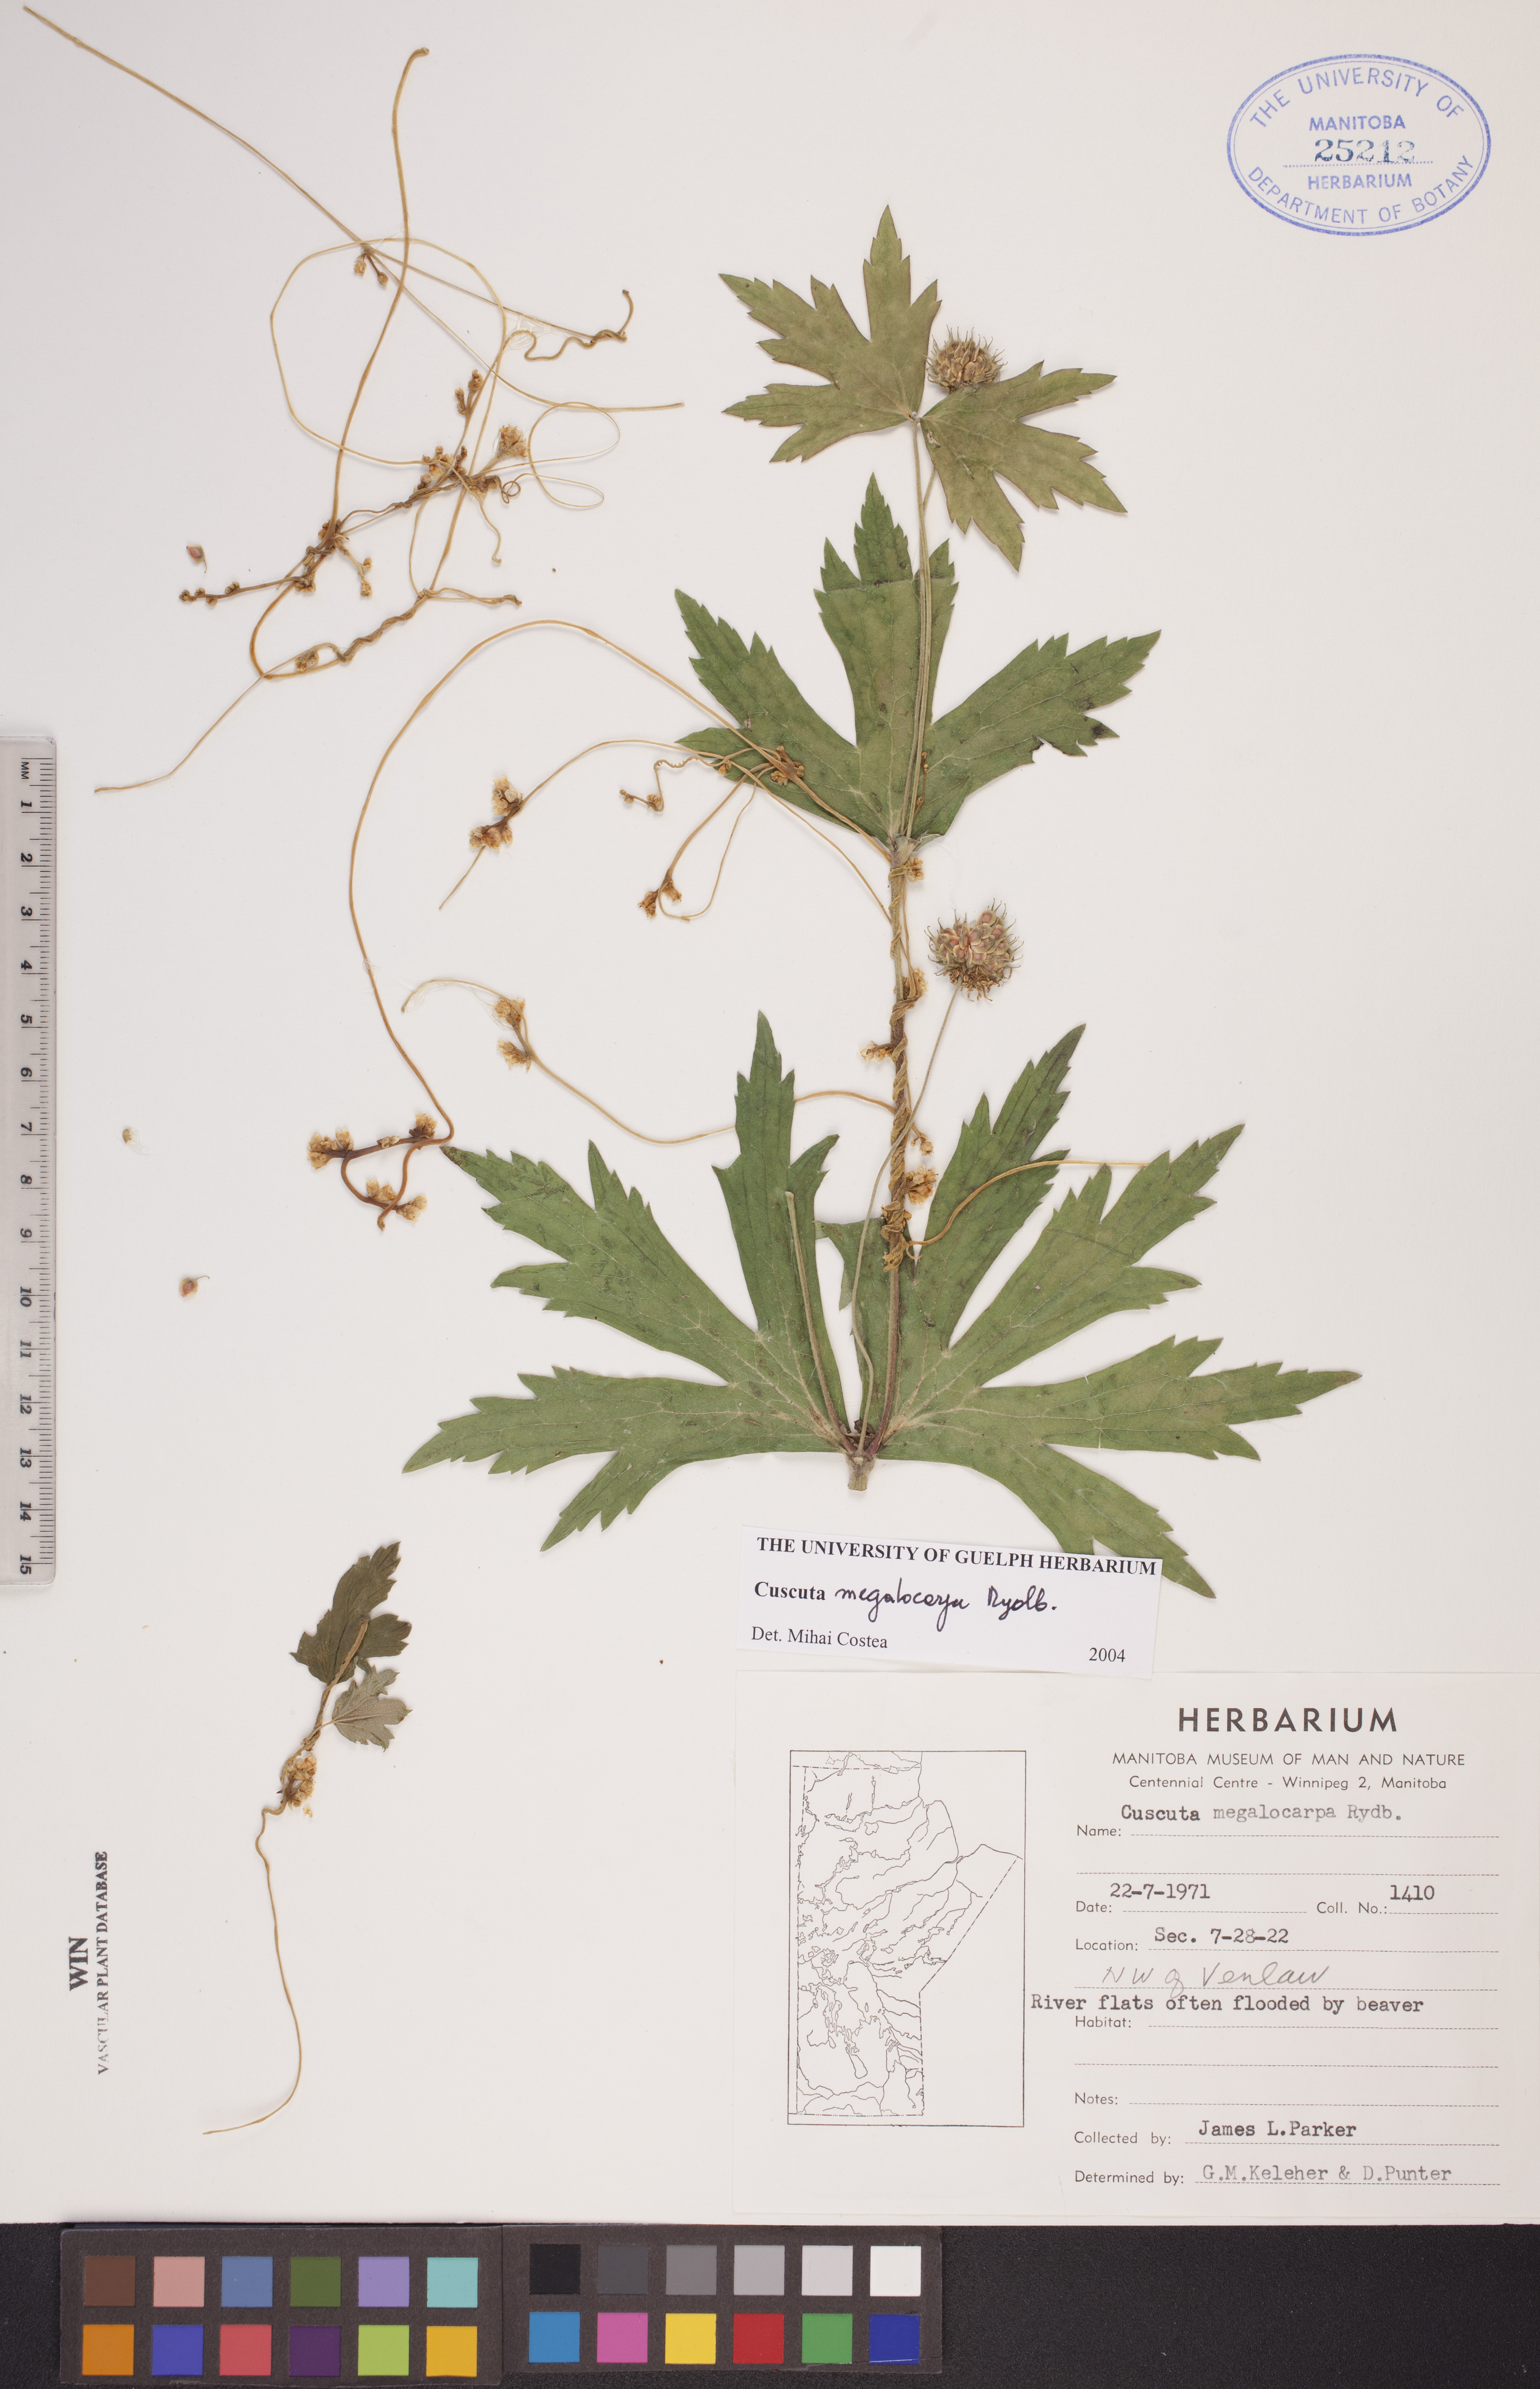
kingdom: Plantae
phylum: Tracheophyta
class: Magnoliopsida
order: Solanales
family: Convolvulaceae
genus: Cuscuta
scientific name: Cuscuta umbrosa
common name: Bigfruit dodder
